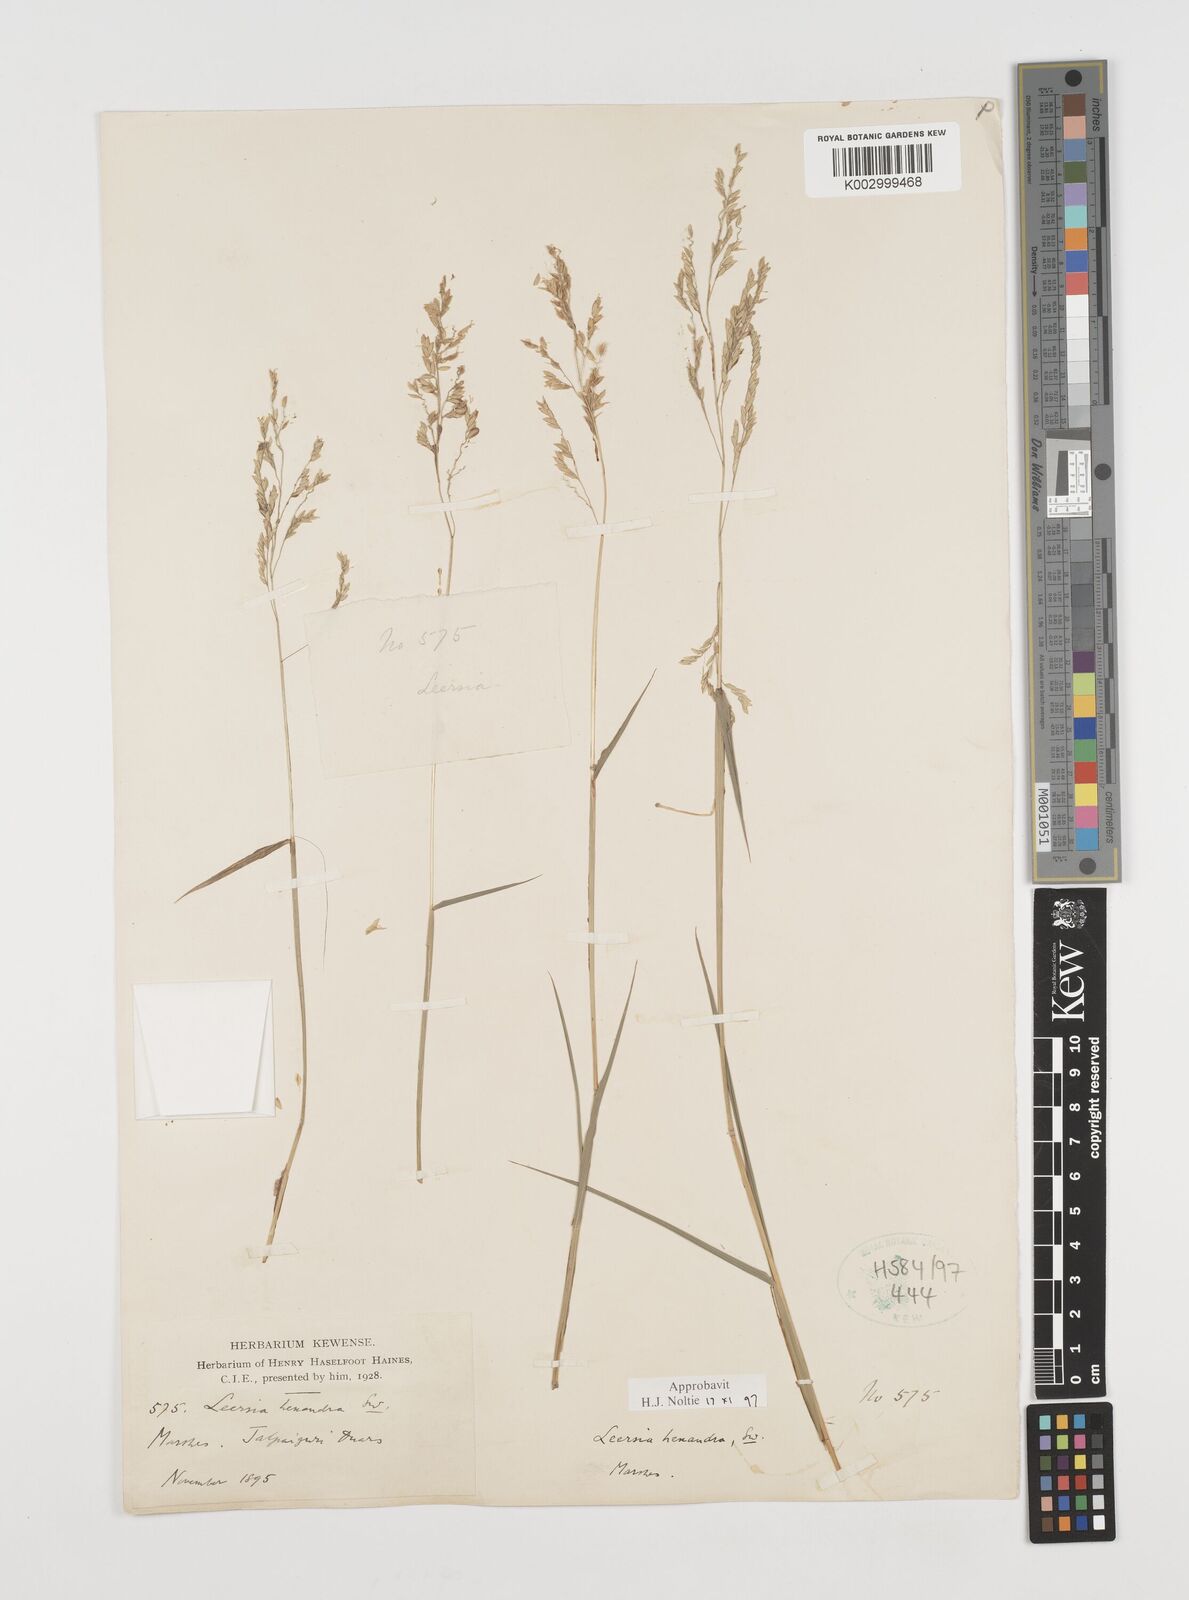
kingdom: Plantae
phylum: Tracheophyta
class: Liliopsida
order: Poales
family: Poaceae
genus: Leersia
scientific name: Leersia hexandra
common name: Southern cut grass
